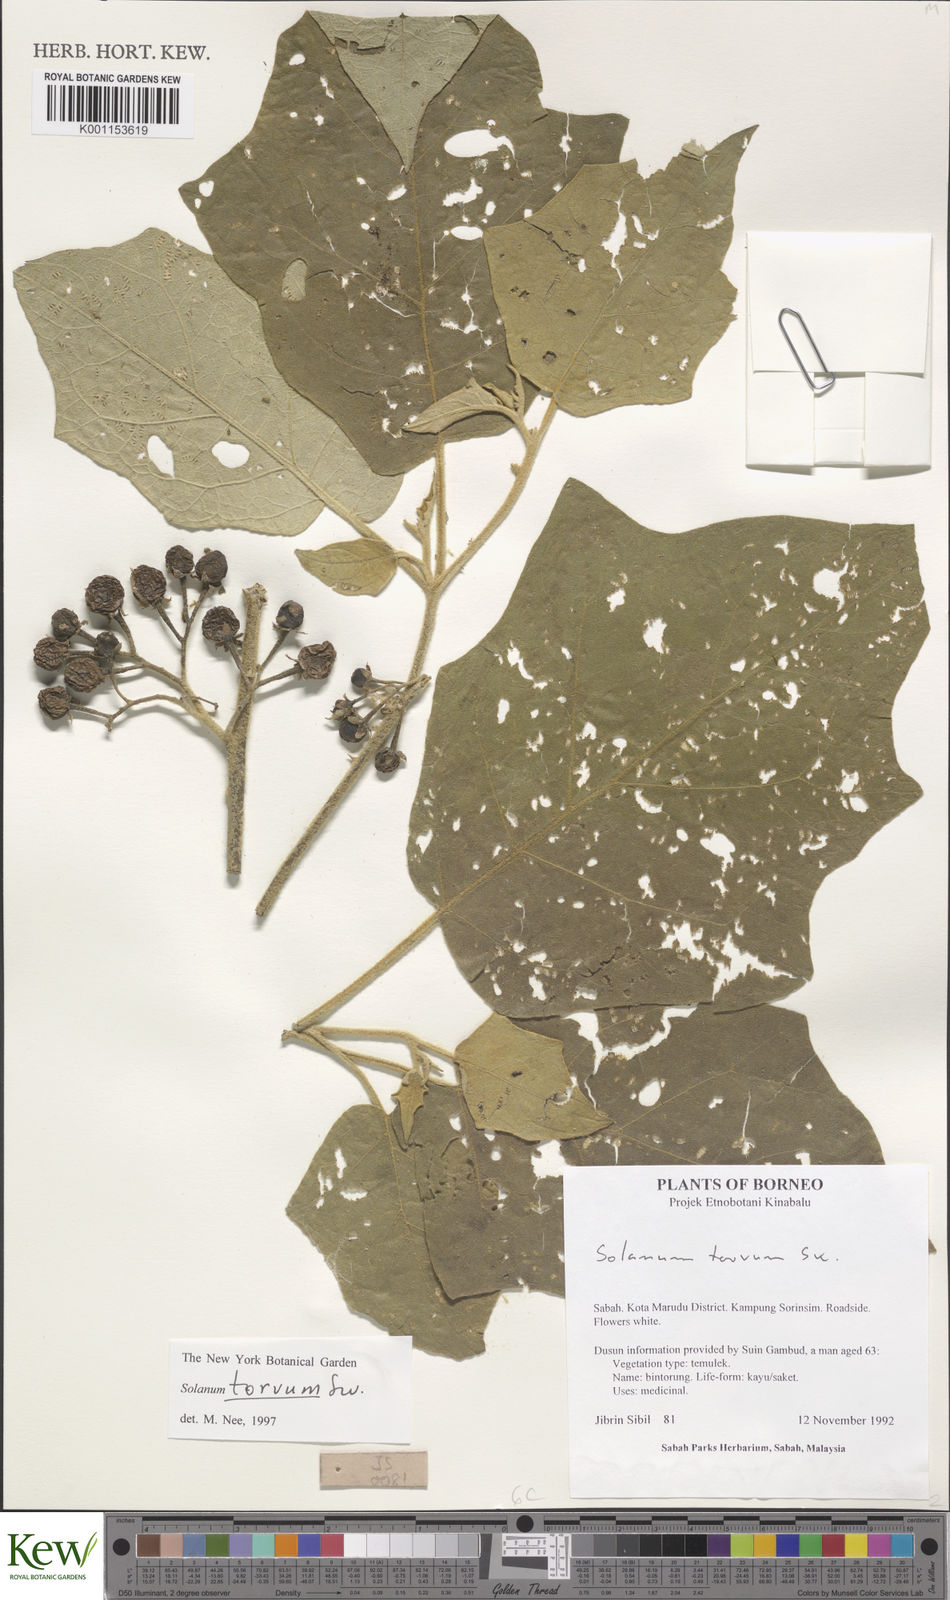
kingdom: Plantae
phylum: Tracheophyta
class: Magnoliopsida
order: Solanales
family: Solanaceae
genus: Solanum
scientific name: Solanum torvum
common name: Turkey berry
